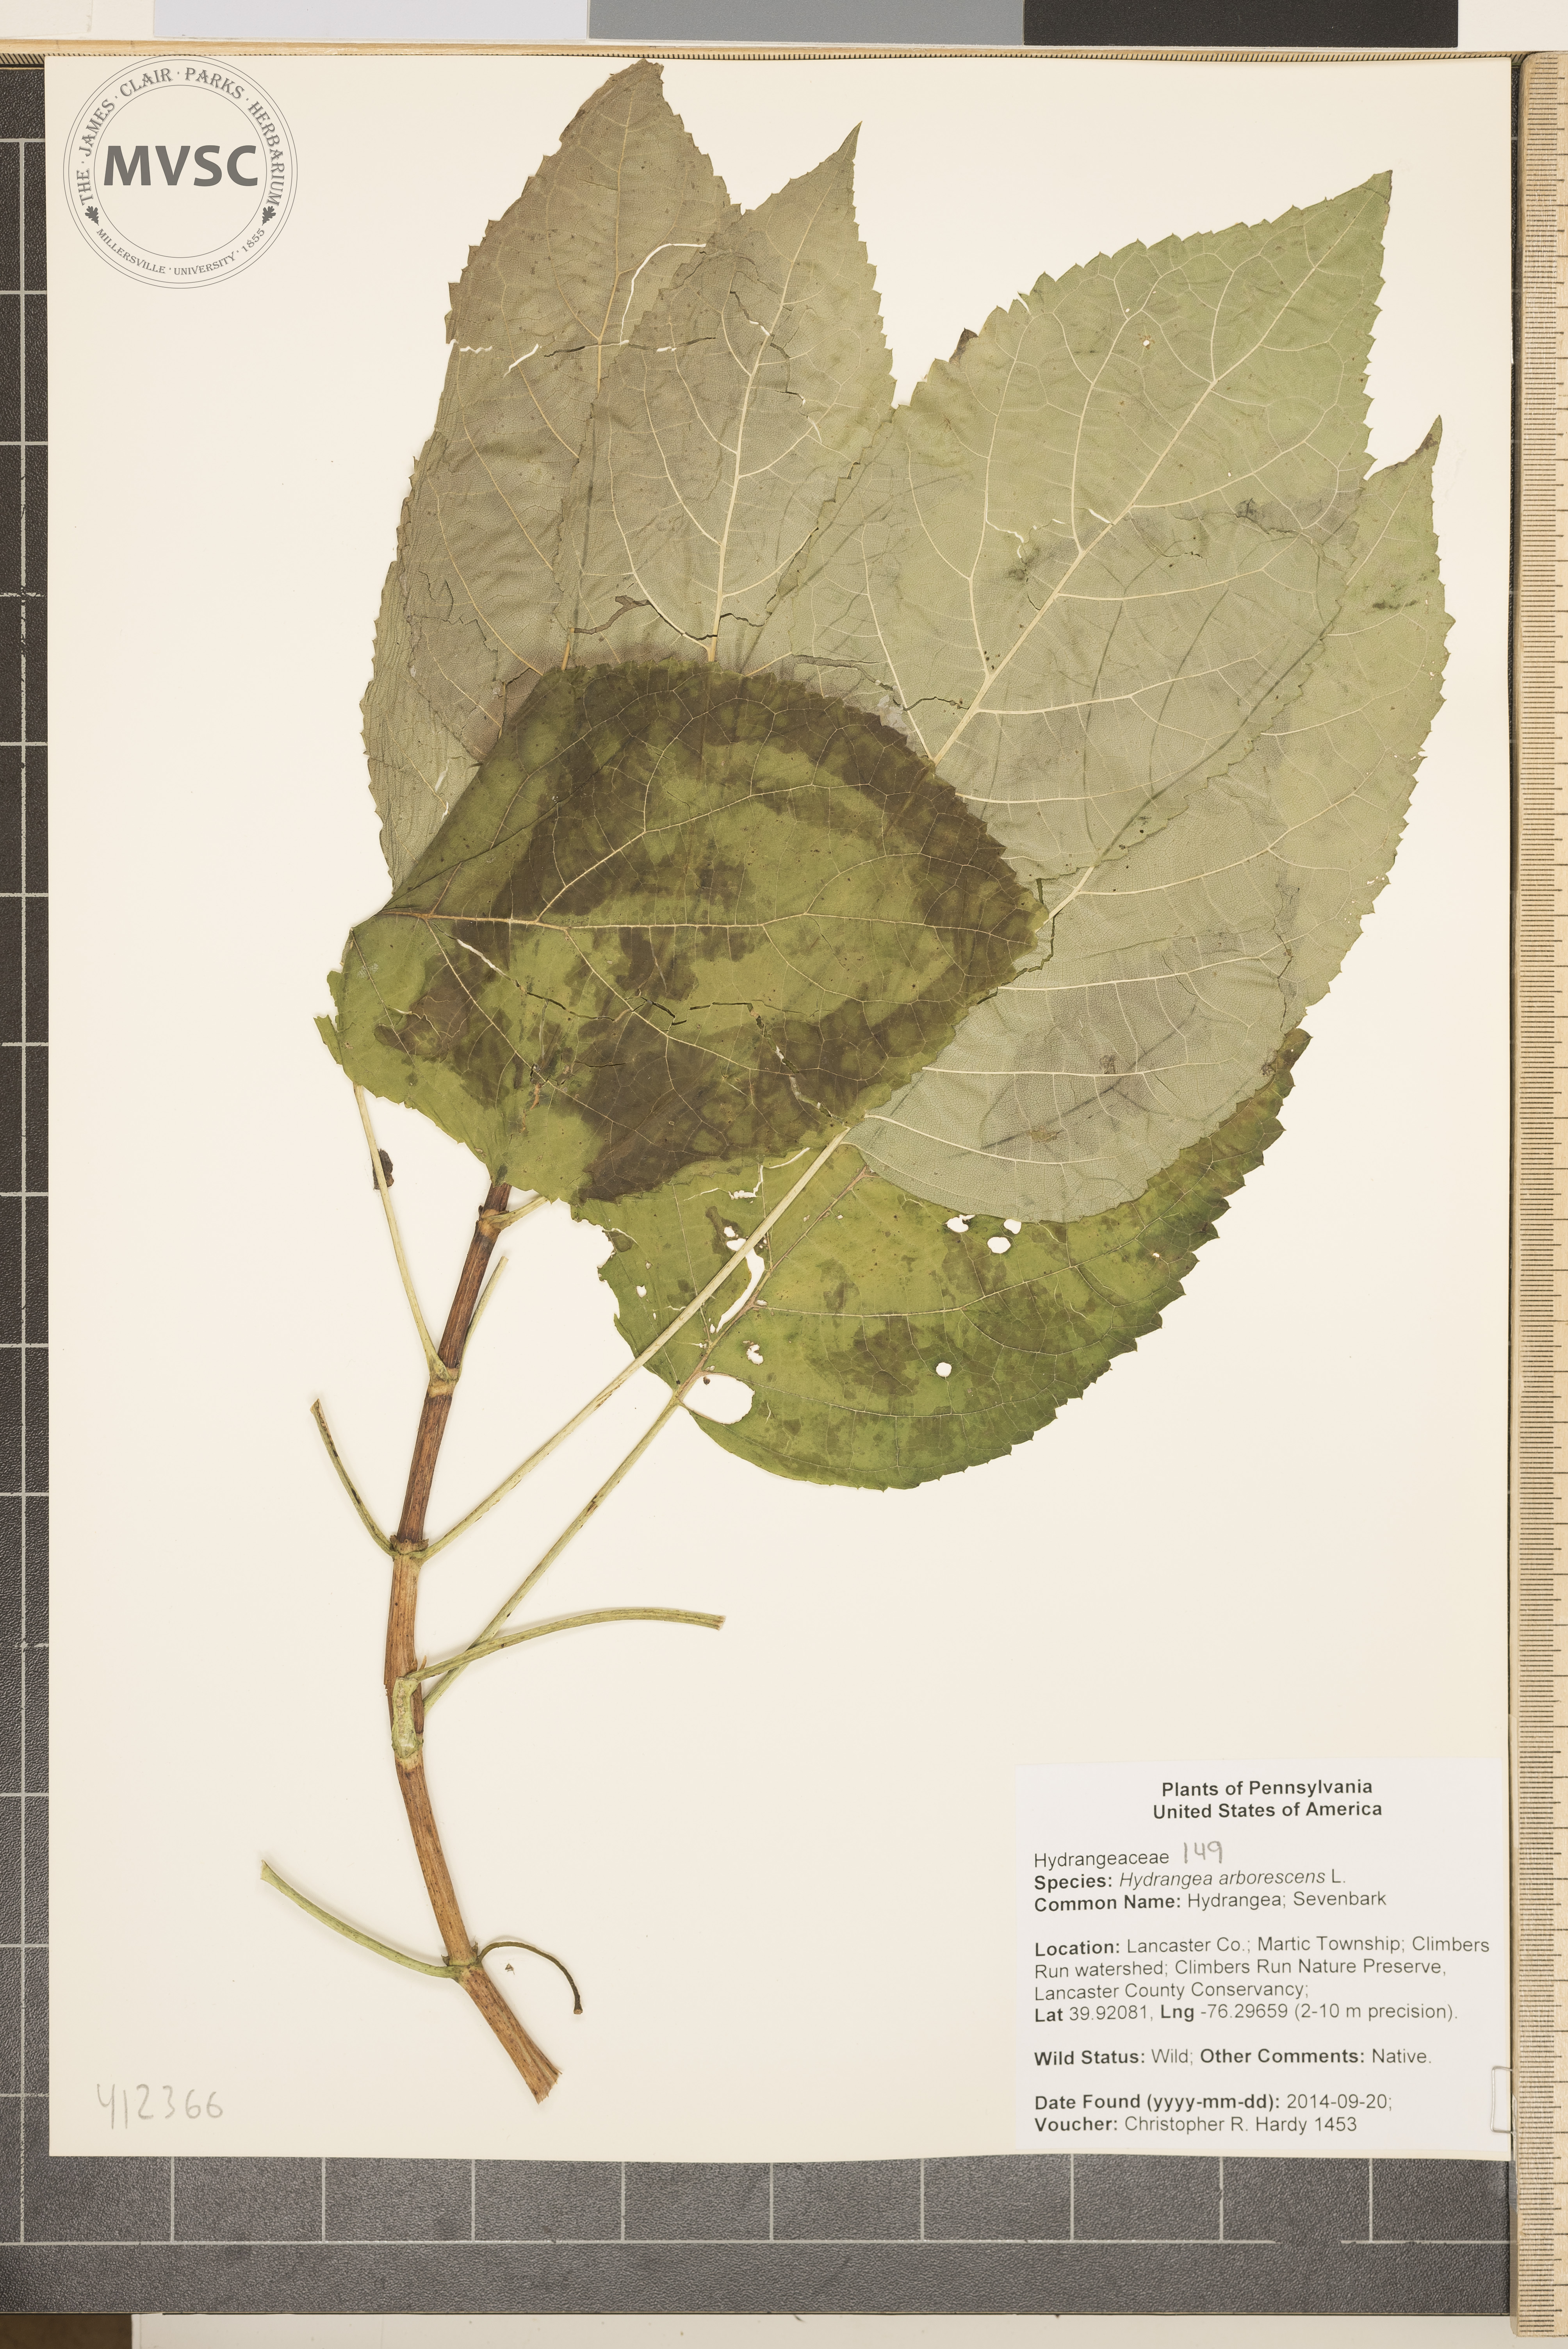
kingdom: Plantae
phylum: Tracheophyta
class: Magnoliopsida
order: Cornales
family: Hydrangeaceae
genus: Hydrangea
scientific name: Hydrangea arborescens
